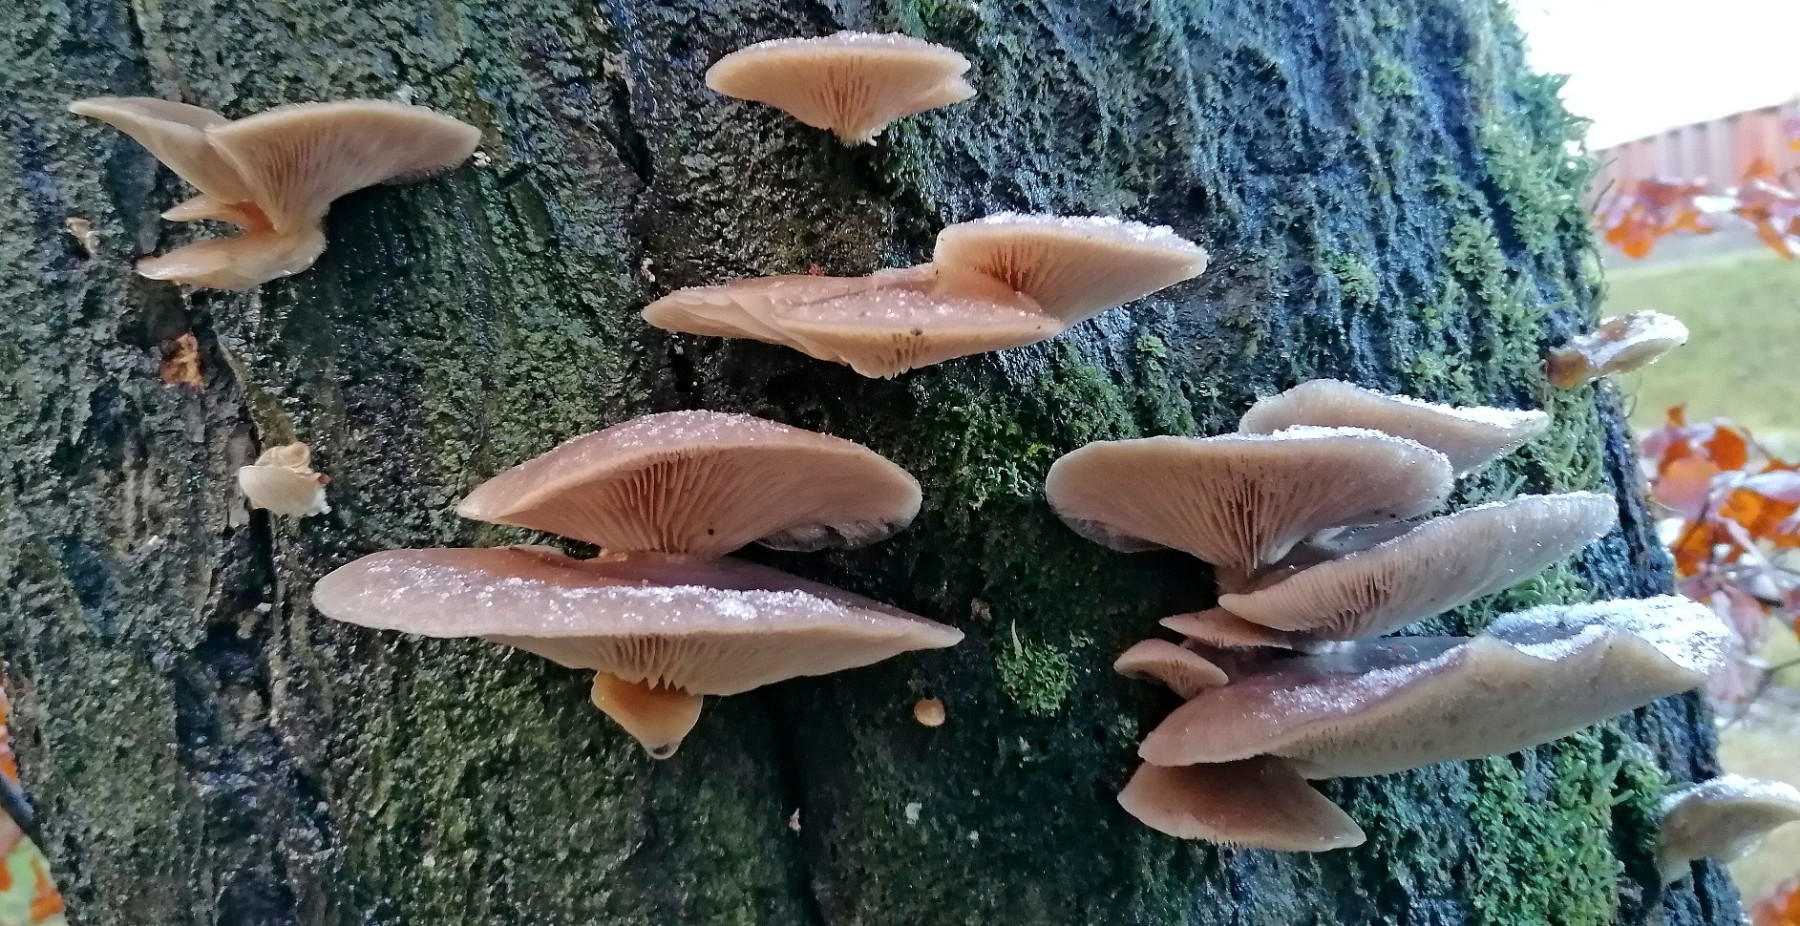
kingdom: Fungi
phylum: Basidiomycota
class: Agaricomycetes
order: Agaricales
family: Pleurotaceae
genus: Pleurotus
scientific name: Pleurotus ostreatus
